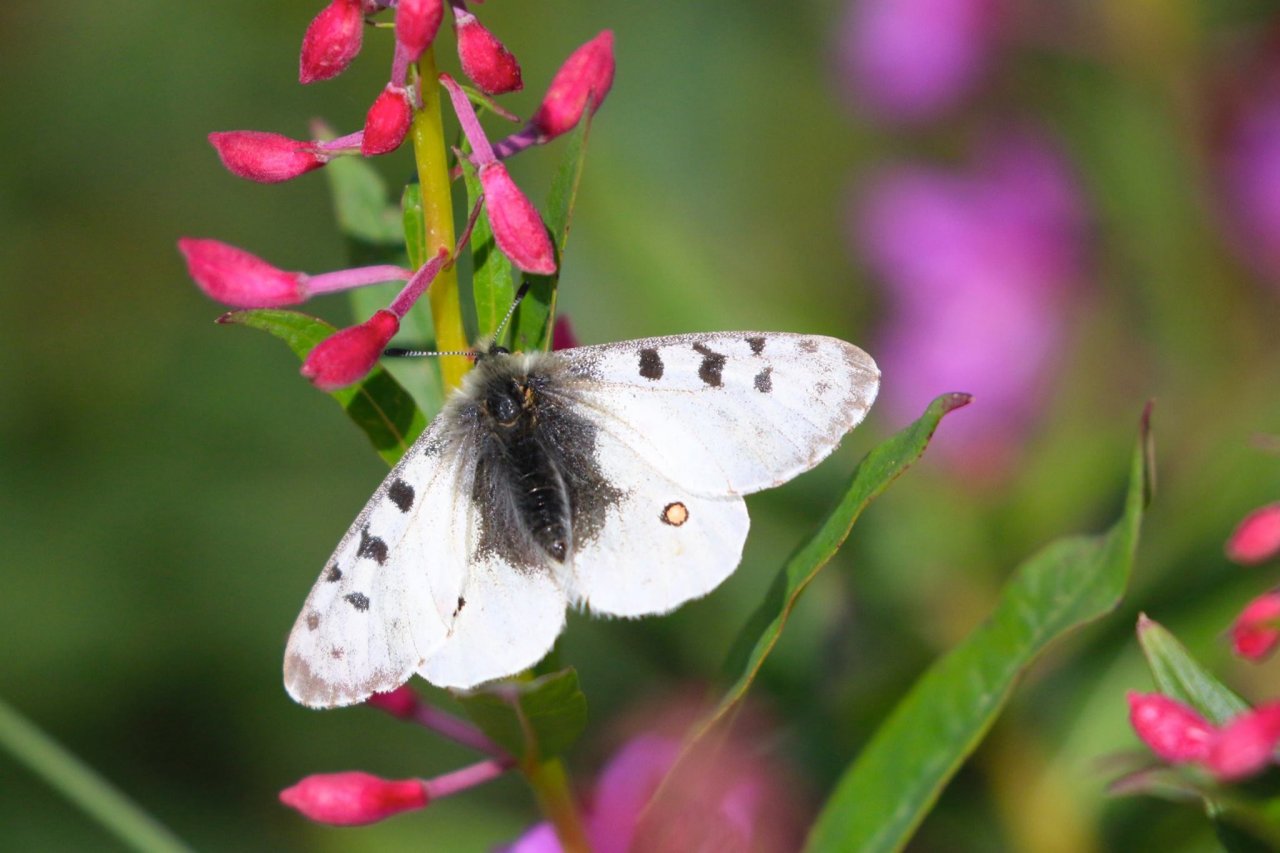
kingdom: Animalia
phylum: Arthropoda
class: Insecta
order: Lepidoptera
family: Papilionidae
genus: Parnassius
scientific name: Parnassius smintheus
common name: Rocky Mountain Parnassian
